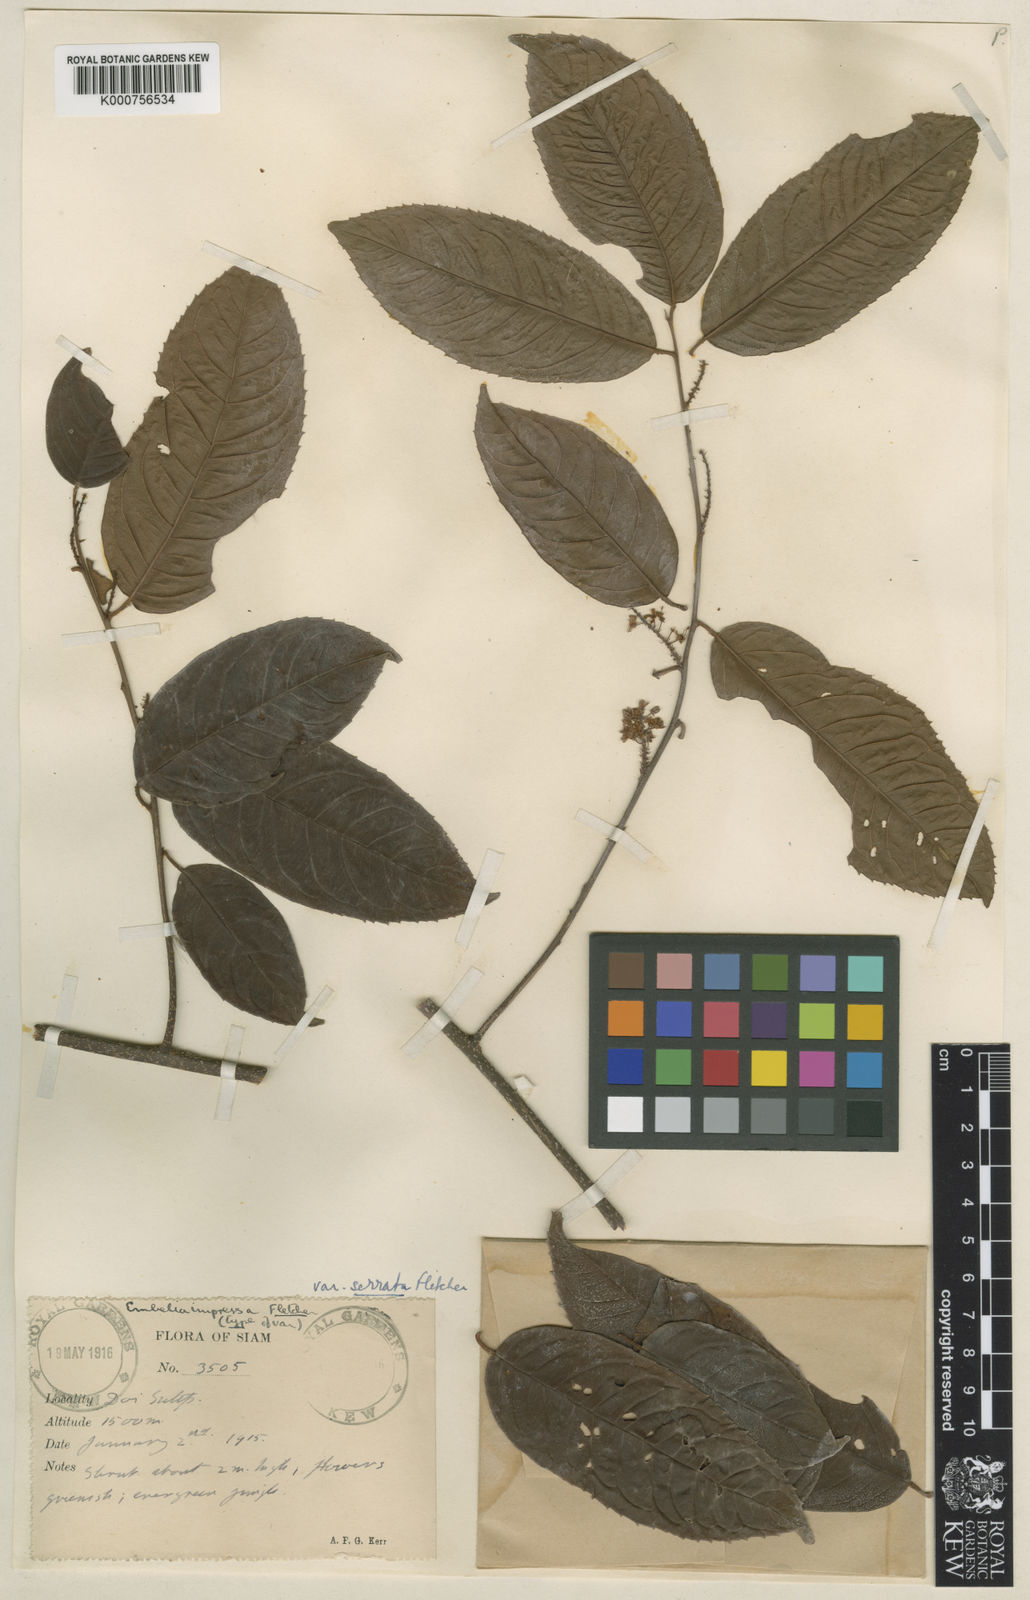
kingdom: Plantae
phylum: Tracheophyta
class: Magnoliopsida
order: Ericales
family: Primulaceae
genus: Embelia
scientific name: Embelia impressa
